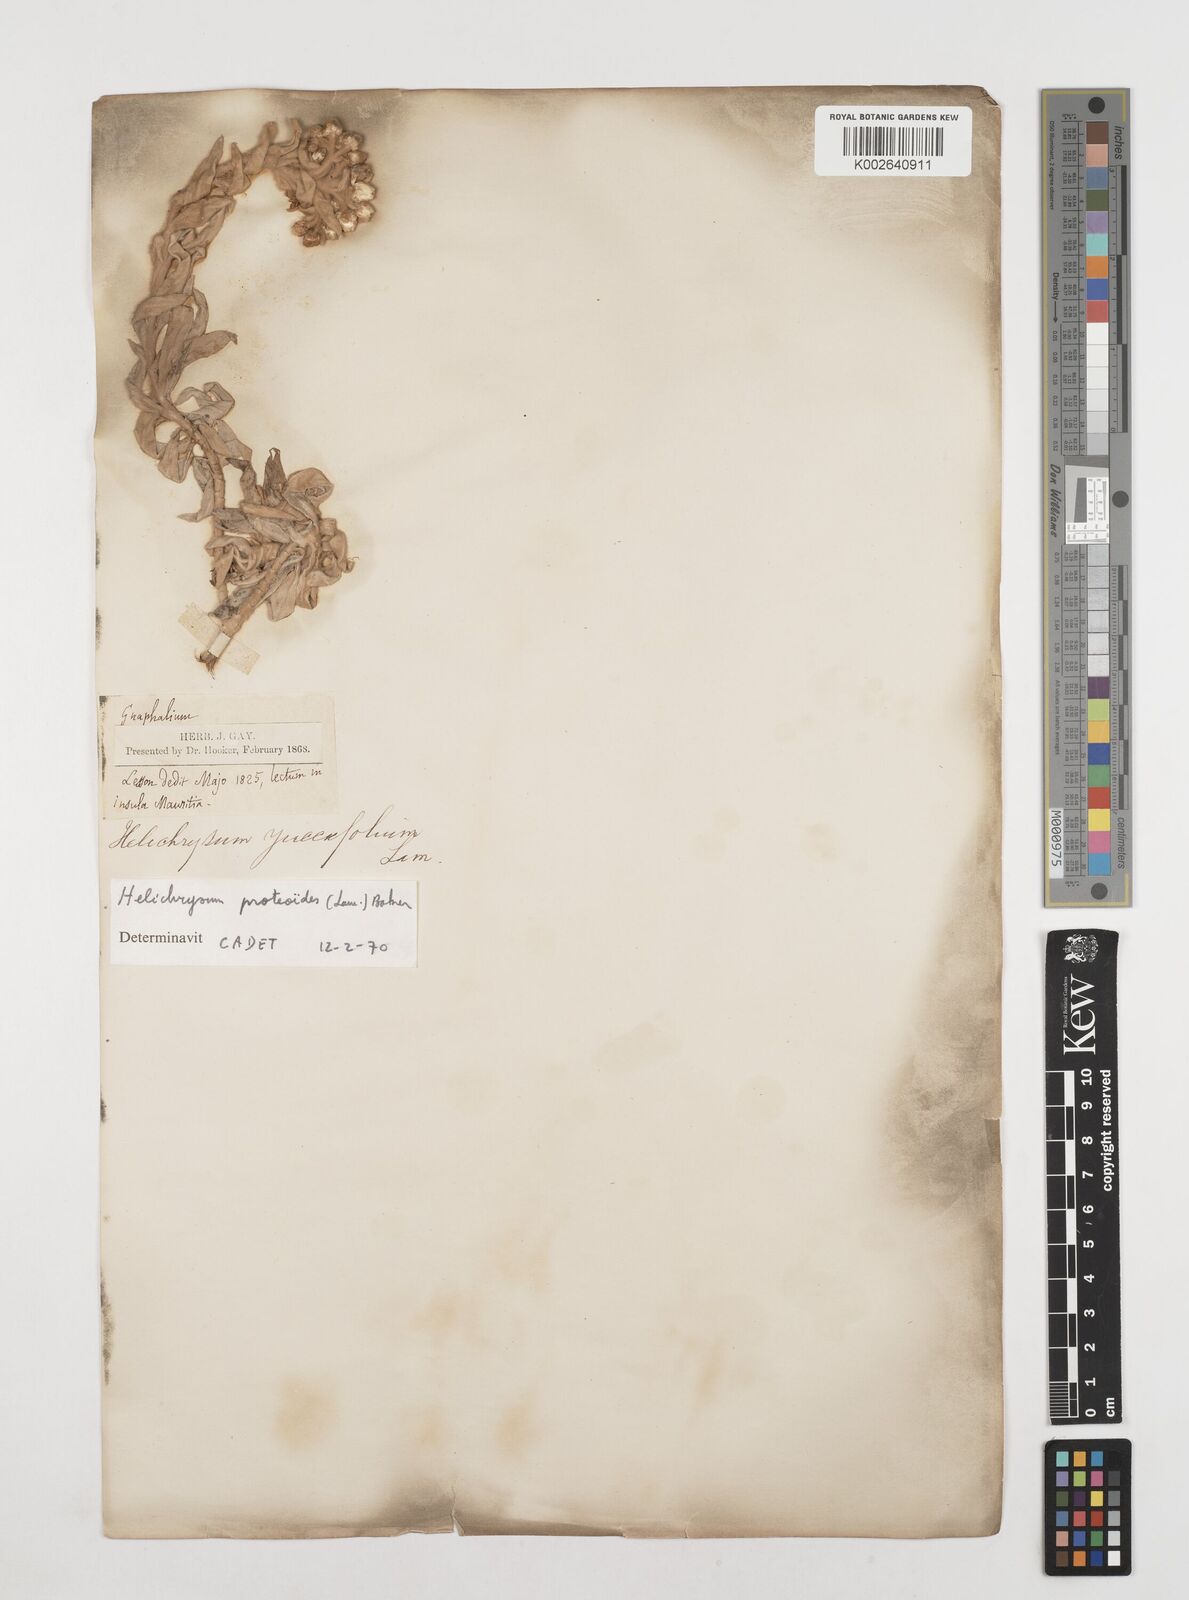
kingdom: Plantae
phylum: Tracheophyta
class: Magnoliopsida
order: Asterales
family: Asteraceae
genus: Helichrysum
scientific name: Helichrysum proteoides
